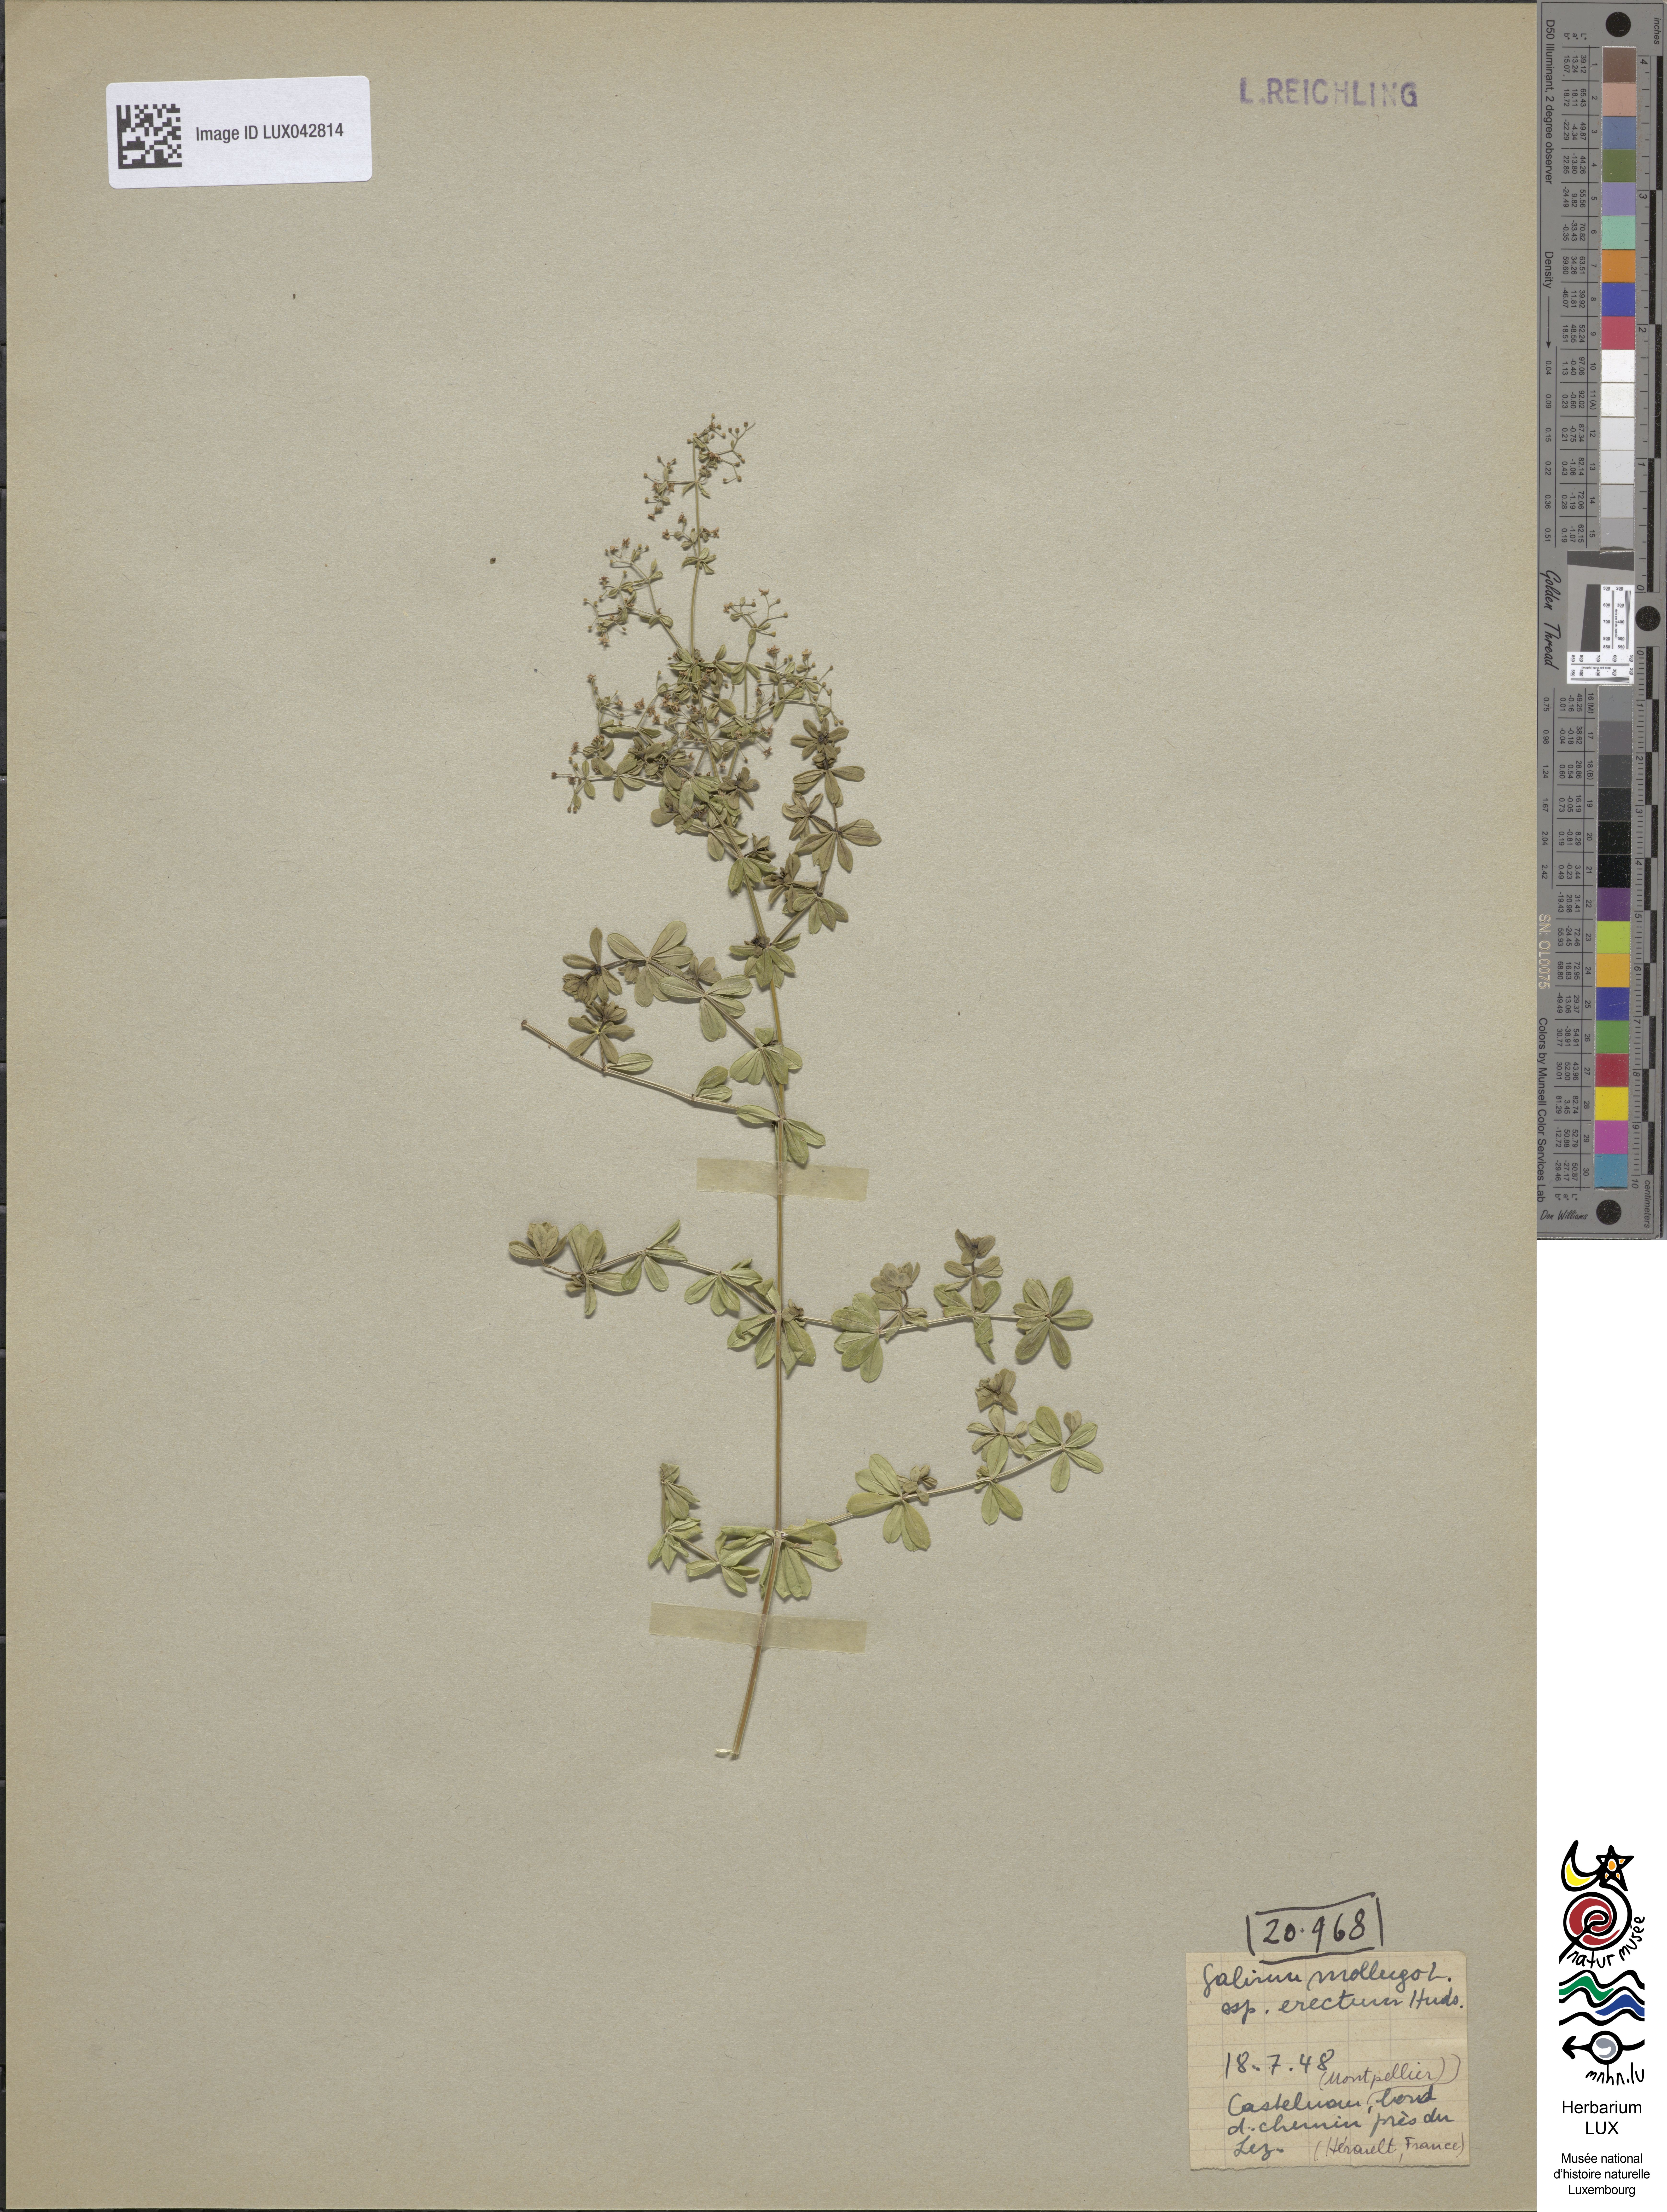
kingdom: Plantae
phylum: Tracheophyta
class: Magnoliopsida
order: Gentianales
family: Rubiaceae
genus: Galium
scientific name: Galium album
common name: White bedstraw
